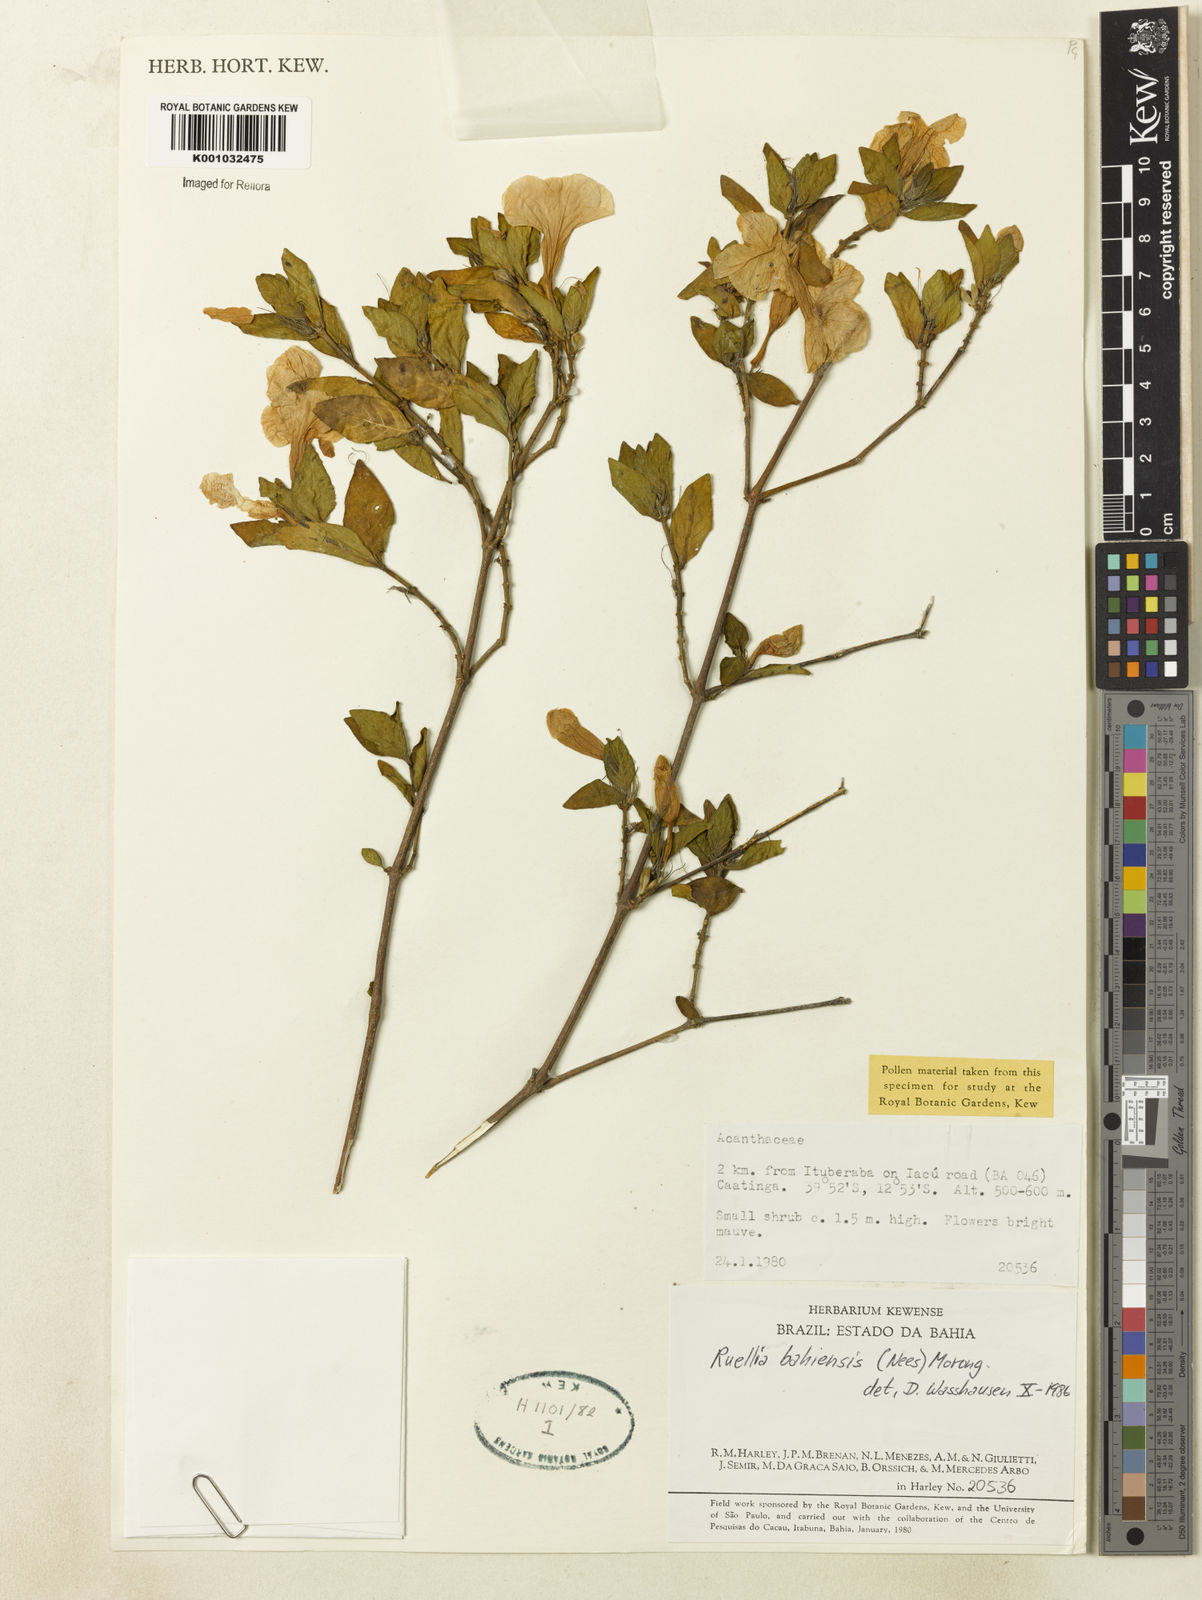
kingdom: Plantae
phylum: Tracheophyta
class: Magnoliopsida
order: Lamiales
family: Acanthaceae
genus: Ruellia
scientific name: Ruellia bahiensis
